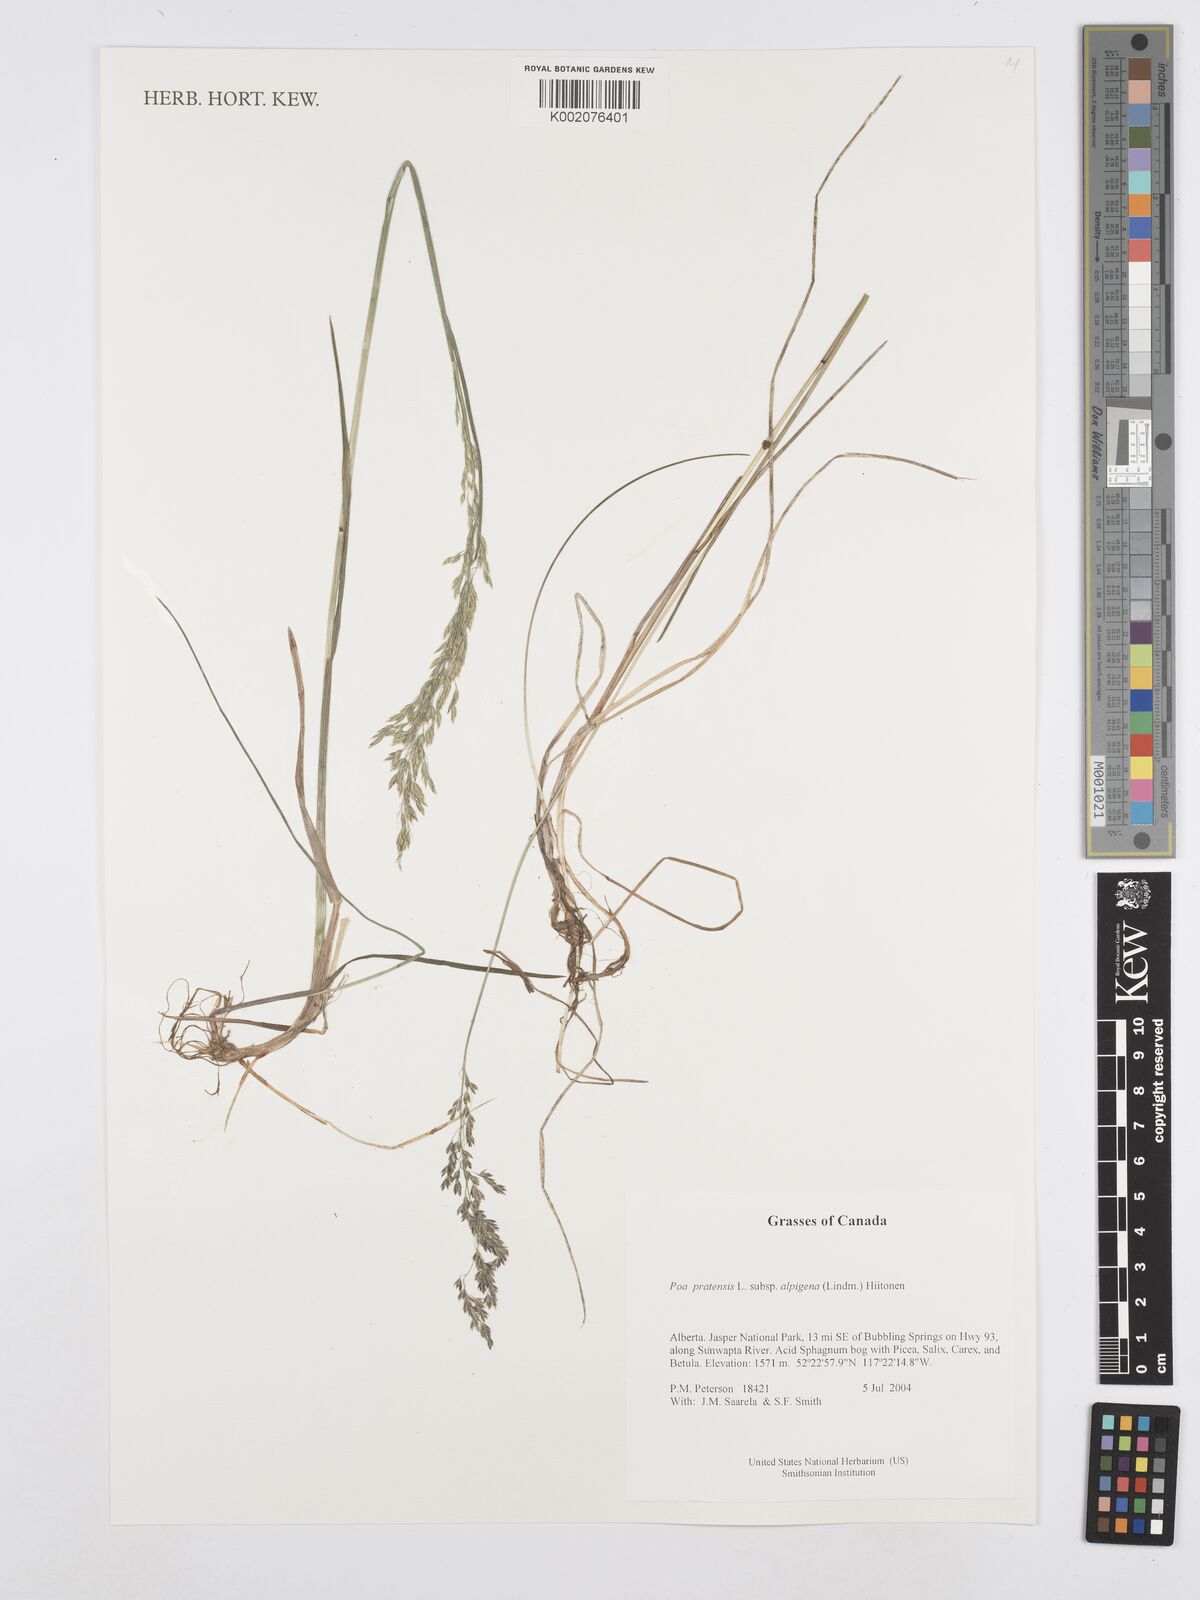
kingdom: Plantae
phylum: Tracheophyta
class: Liliopsida
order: Poales
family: Poaceae
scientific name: Poaceae
